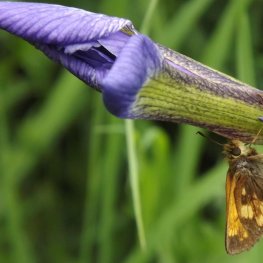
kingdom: Animalia
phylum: Arthropoda
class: Insecta
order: Lepidoptera
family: Hesperiidae
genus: Lon
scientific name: Lon hobomok
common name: Hobomok Skipper
